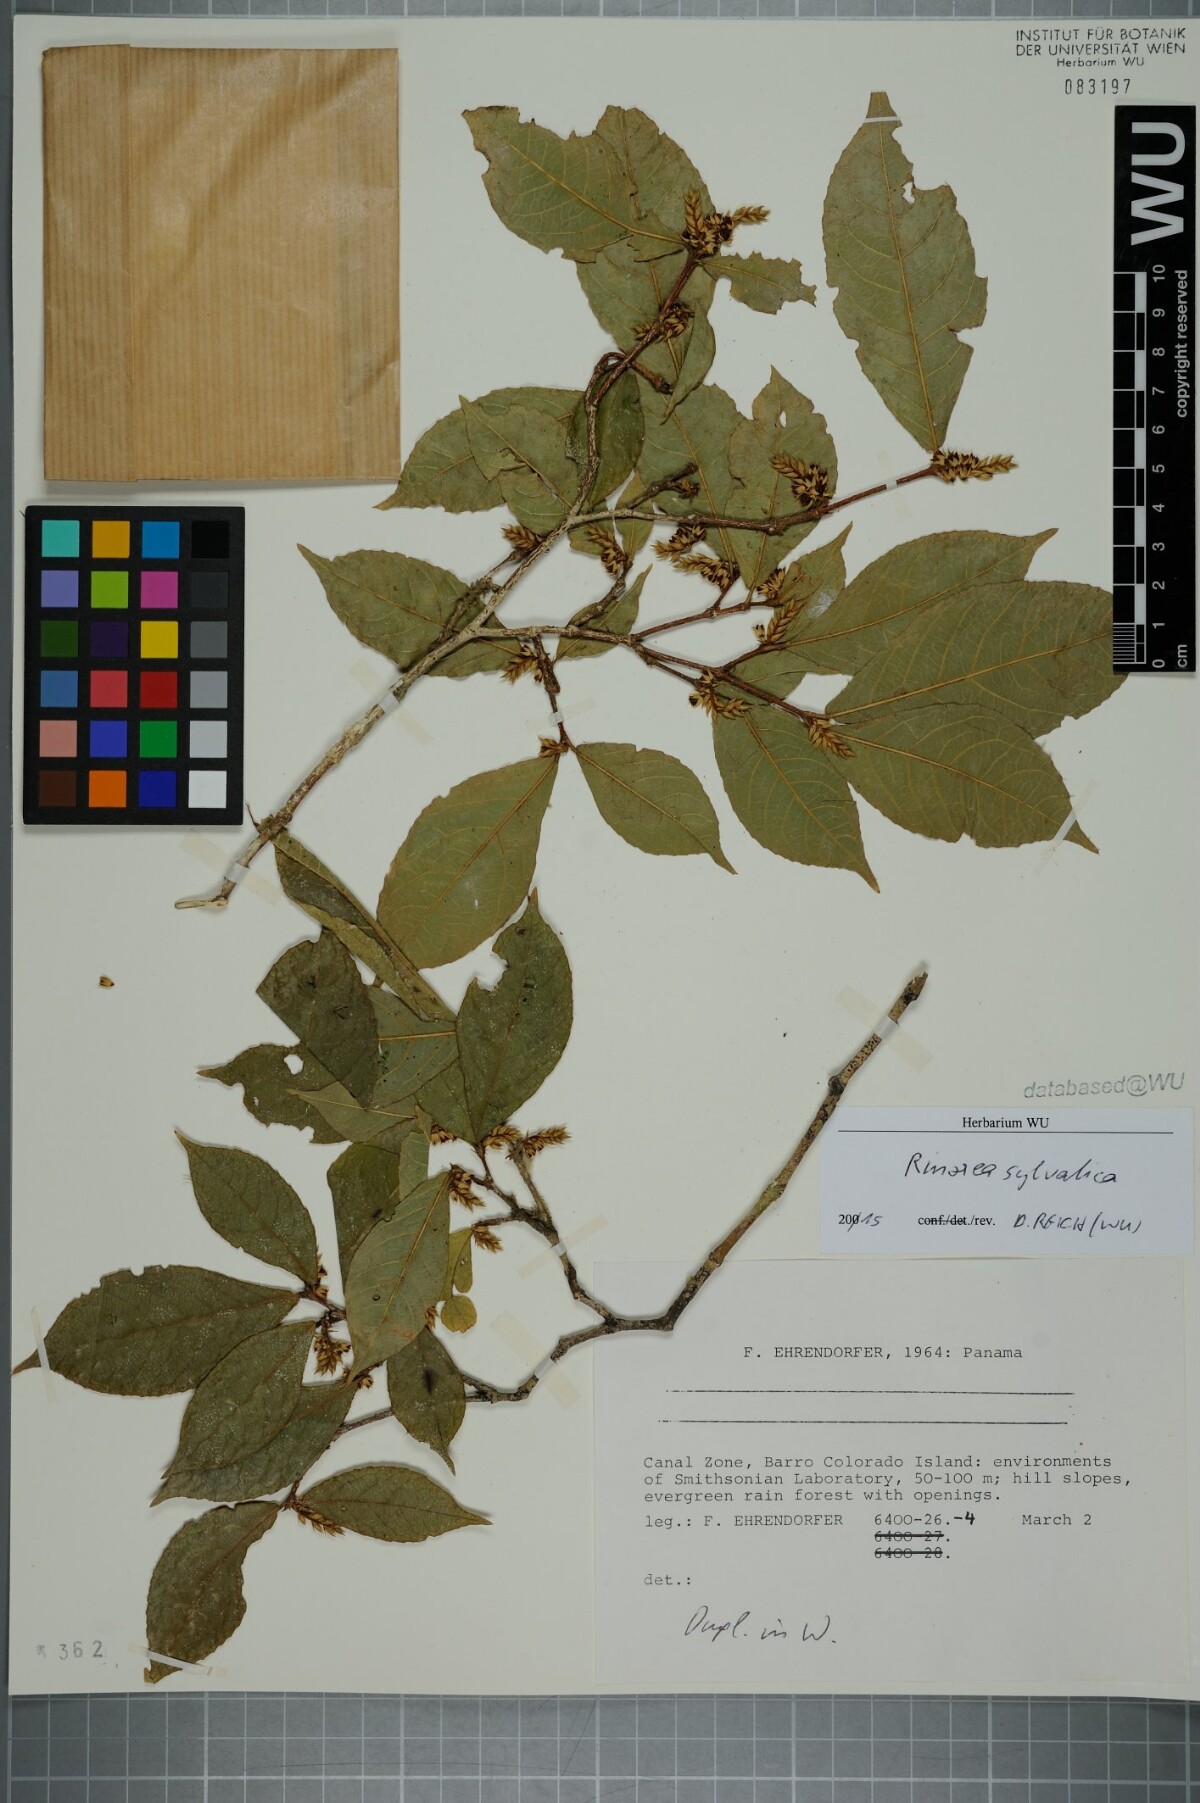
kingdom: Plantae
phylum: Tracheophyta
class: Magnoliopsida
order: Malpighiales
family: Violaceae
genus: Rinorea
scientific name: Rinorea sylvatica
